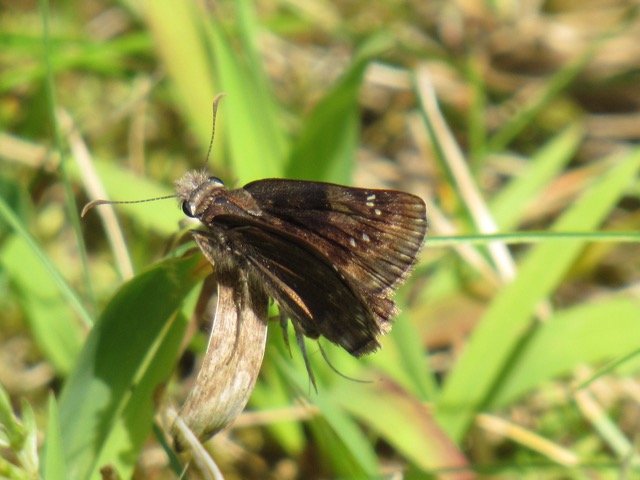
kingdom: Animalia
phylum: Arthropoda
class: Insecta
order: Lepidoptera
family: Hesperiidae
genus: Gesta
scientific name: Gesta
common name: Wild Indigo Duskywing
